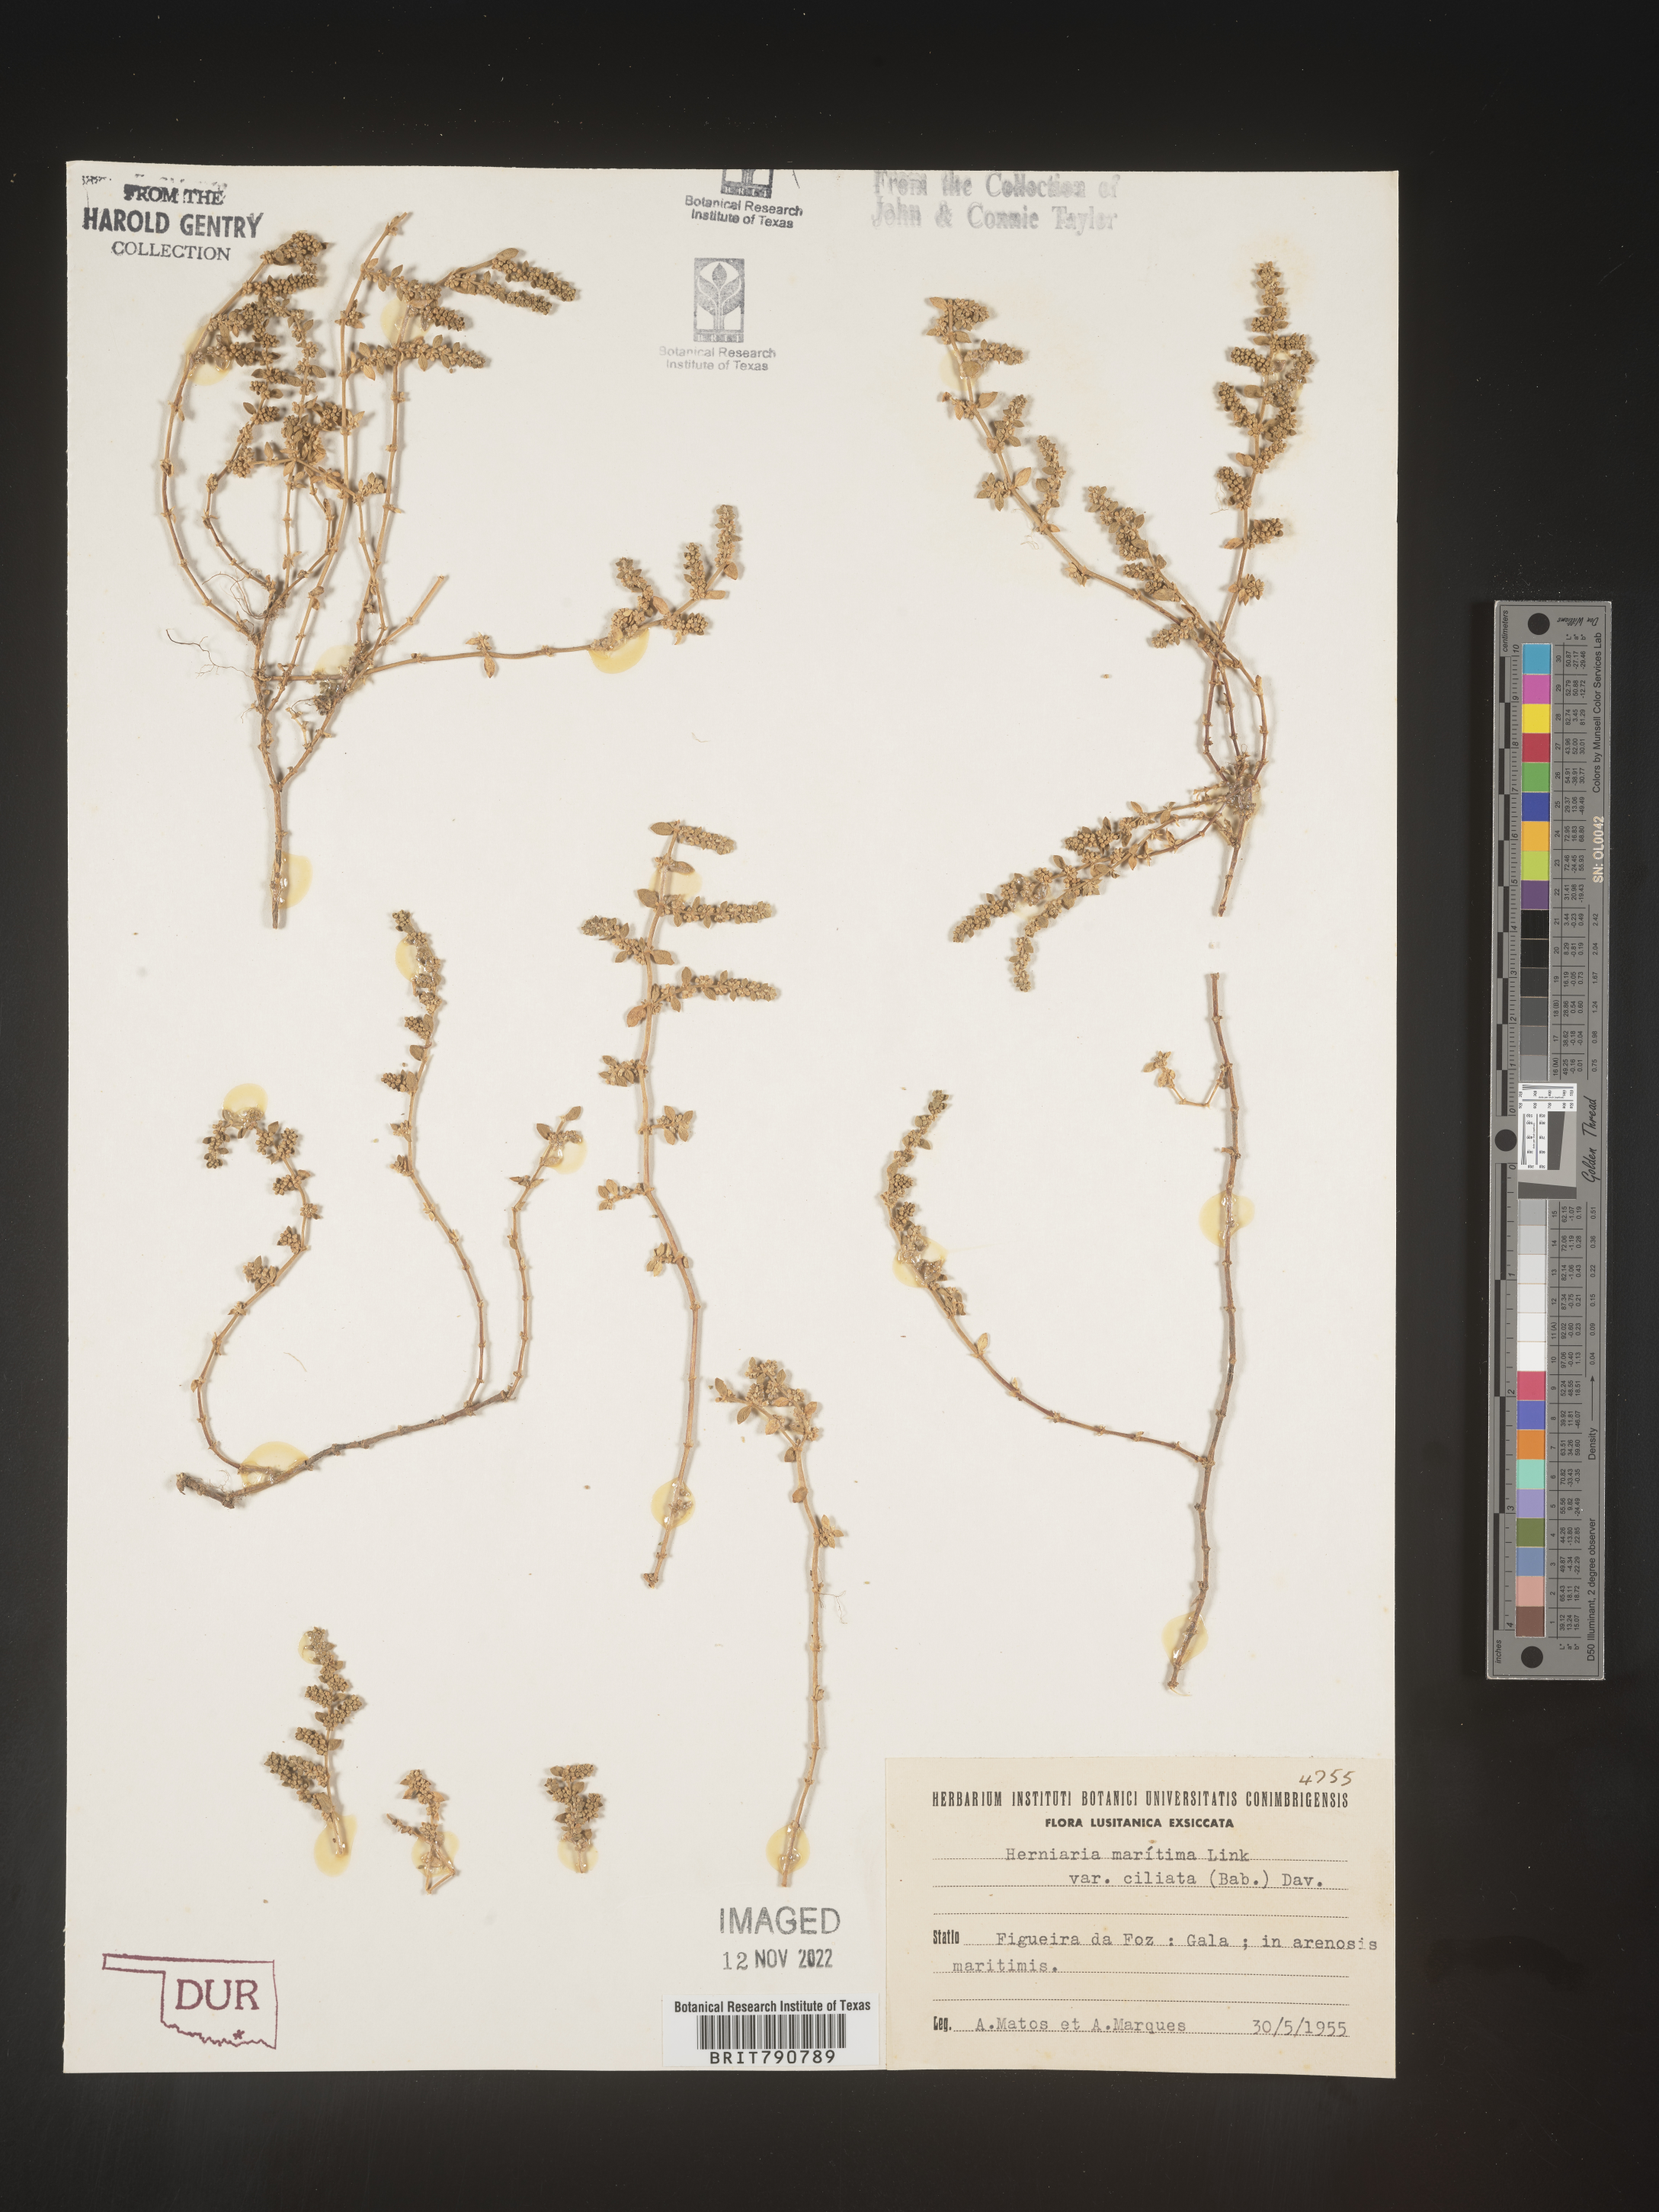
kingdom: Plantae
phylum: Tracheophyta
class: Magnoliopsida
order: Caryophyllales
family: Caryophyllaceae
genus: Herniaria
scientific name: Herniaria
